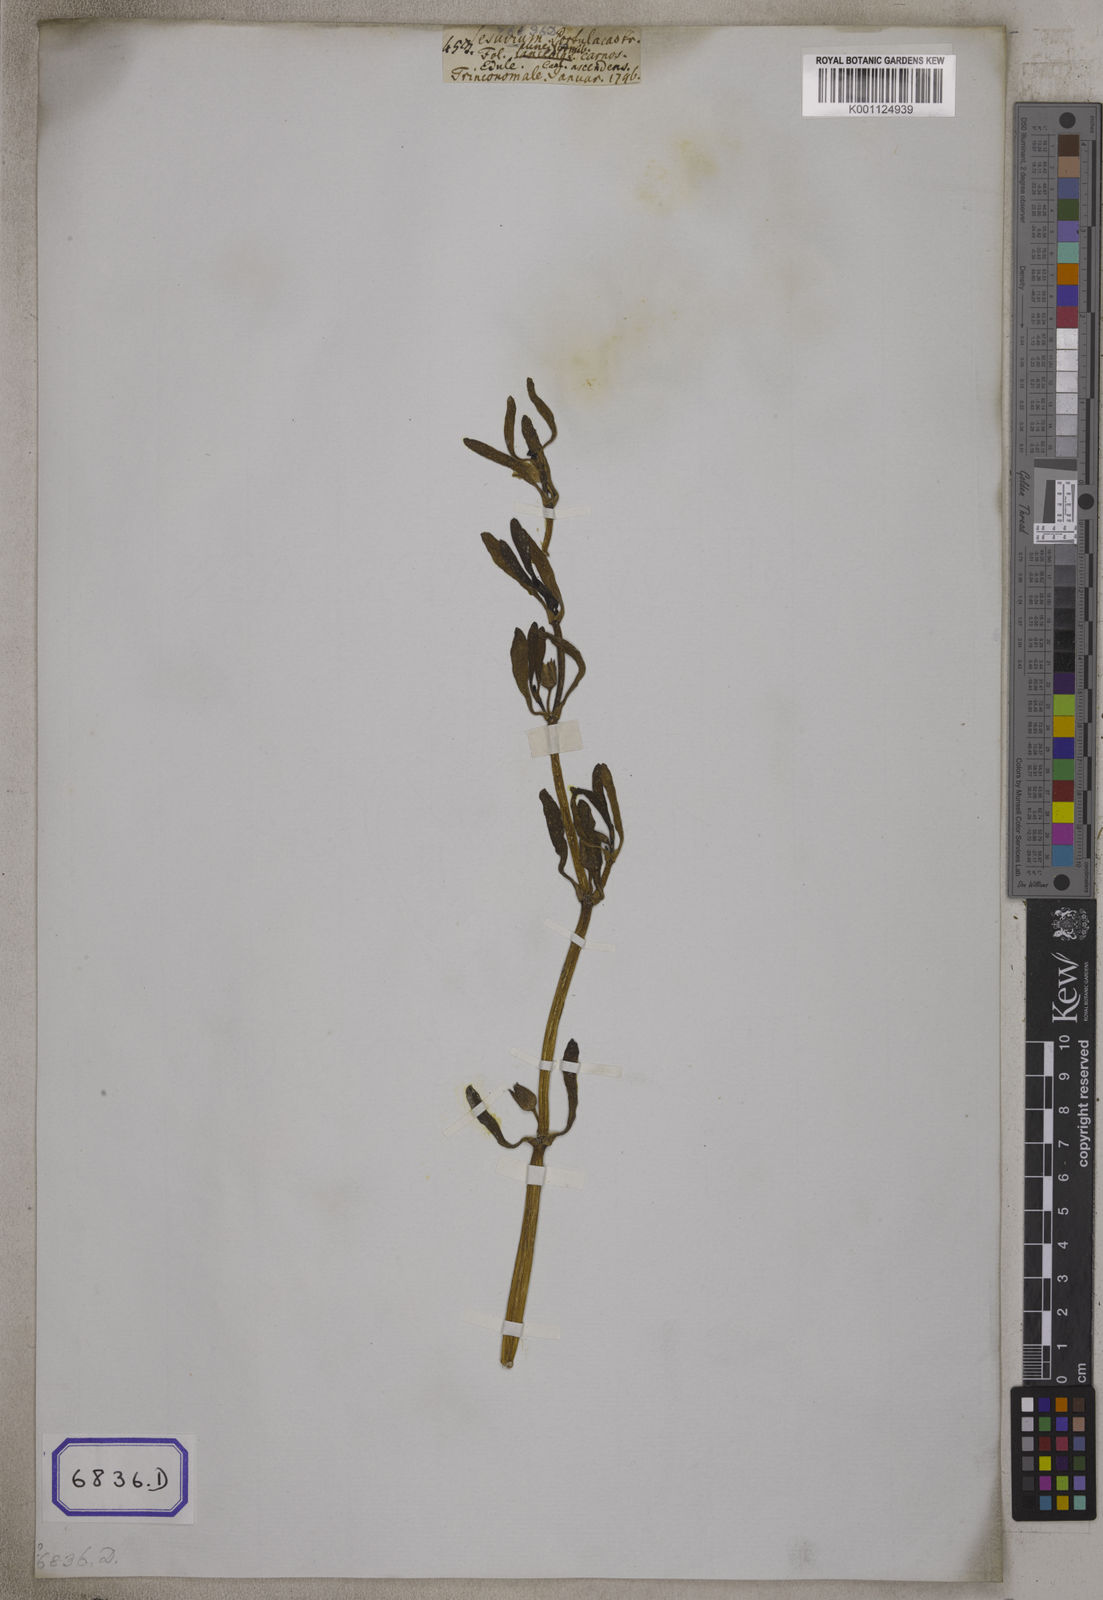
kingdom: Plantae
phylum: Tracheophyta
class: Magnoliopsida
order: Caryophyllales
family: Aizoaceae
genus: Sesuvium
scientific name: Sesuvium portulacastrum
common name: Sea-purslane
